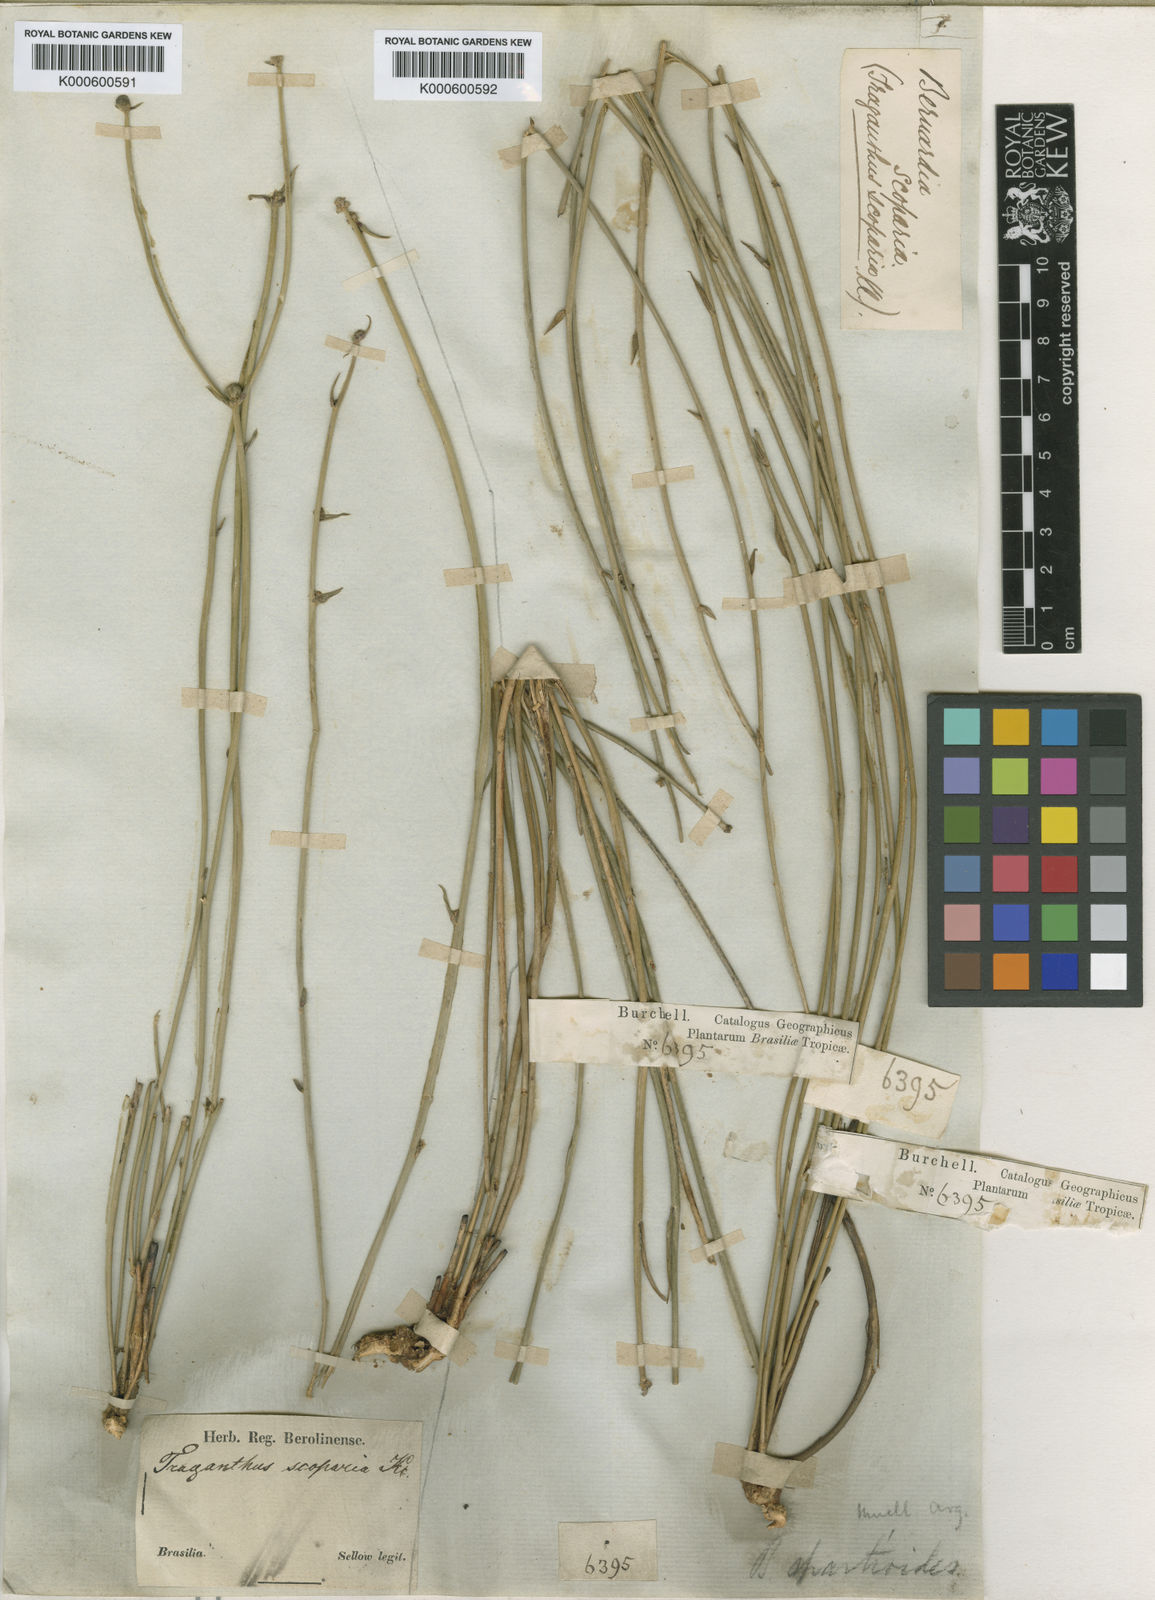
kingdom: Plantae
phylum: Tracheophyta
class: Magnoliopsida
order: Malpighiales
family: Euphorbiaceae
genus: Bernardia
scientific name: Bernardia
